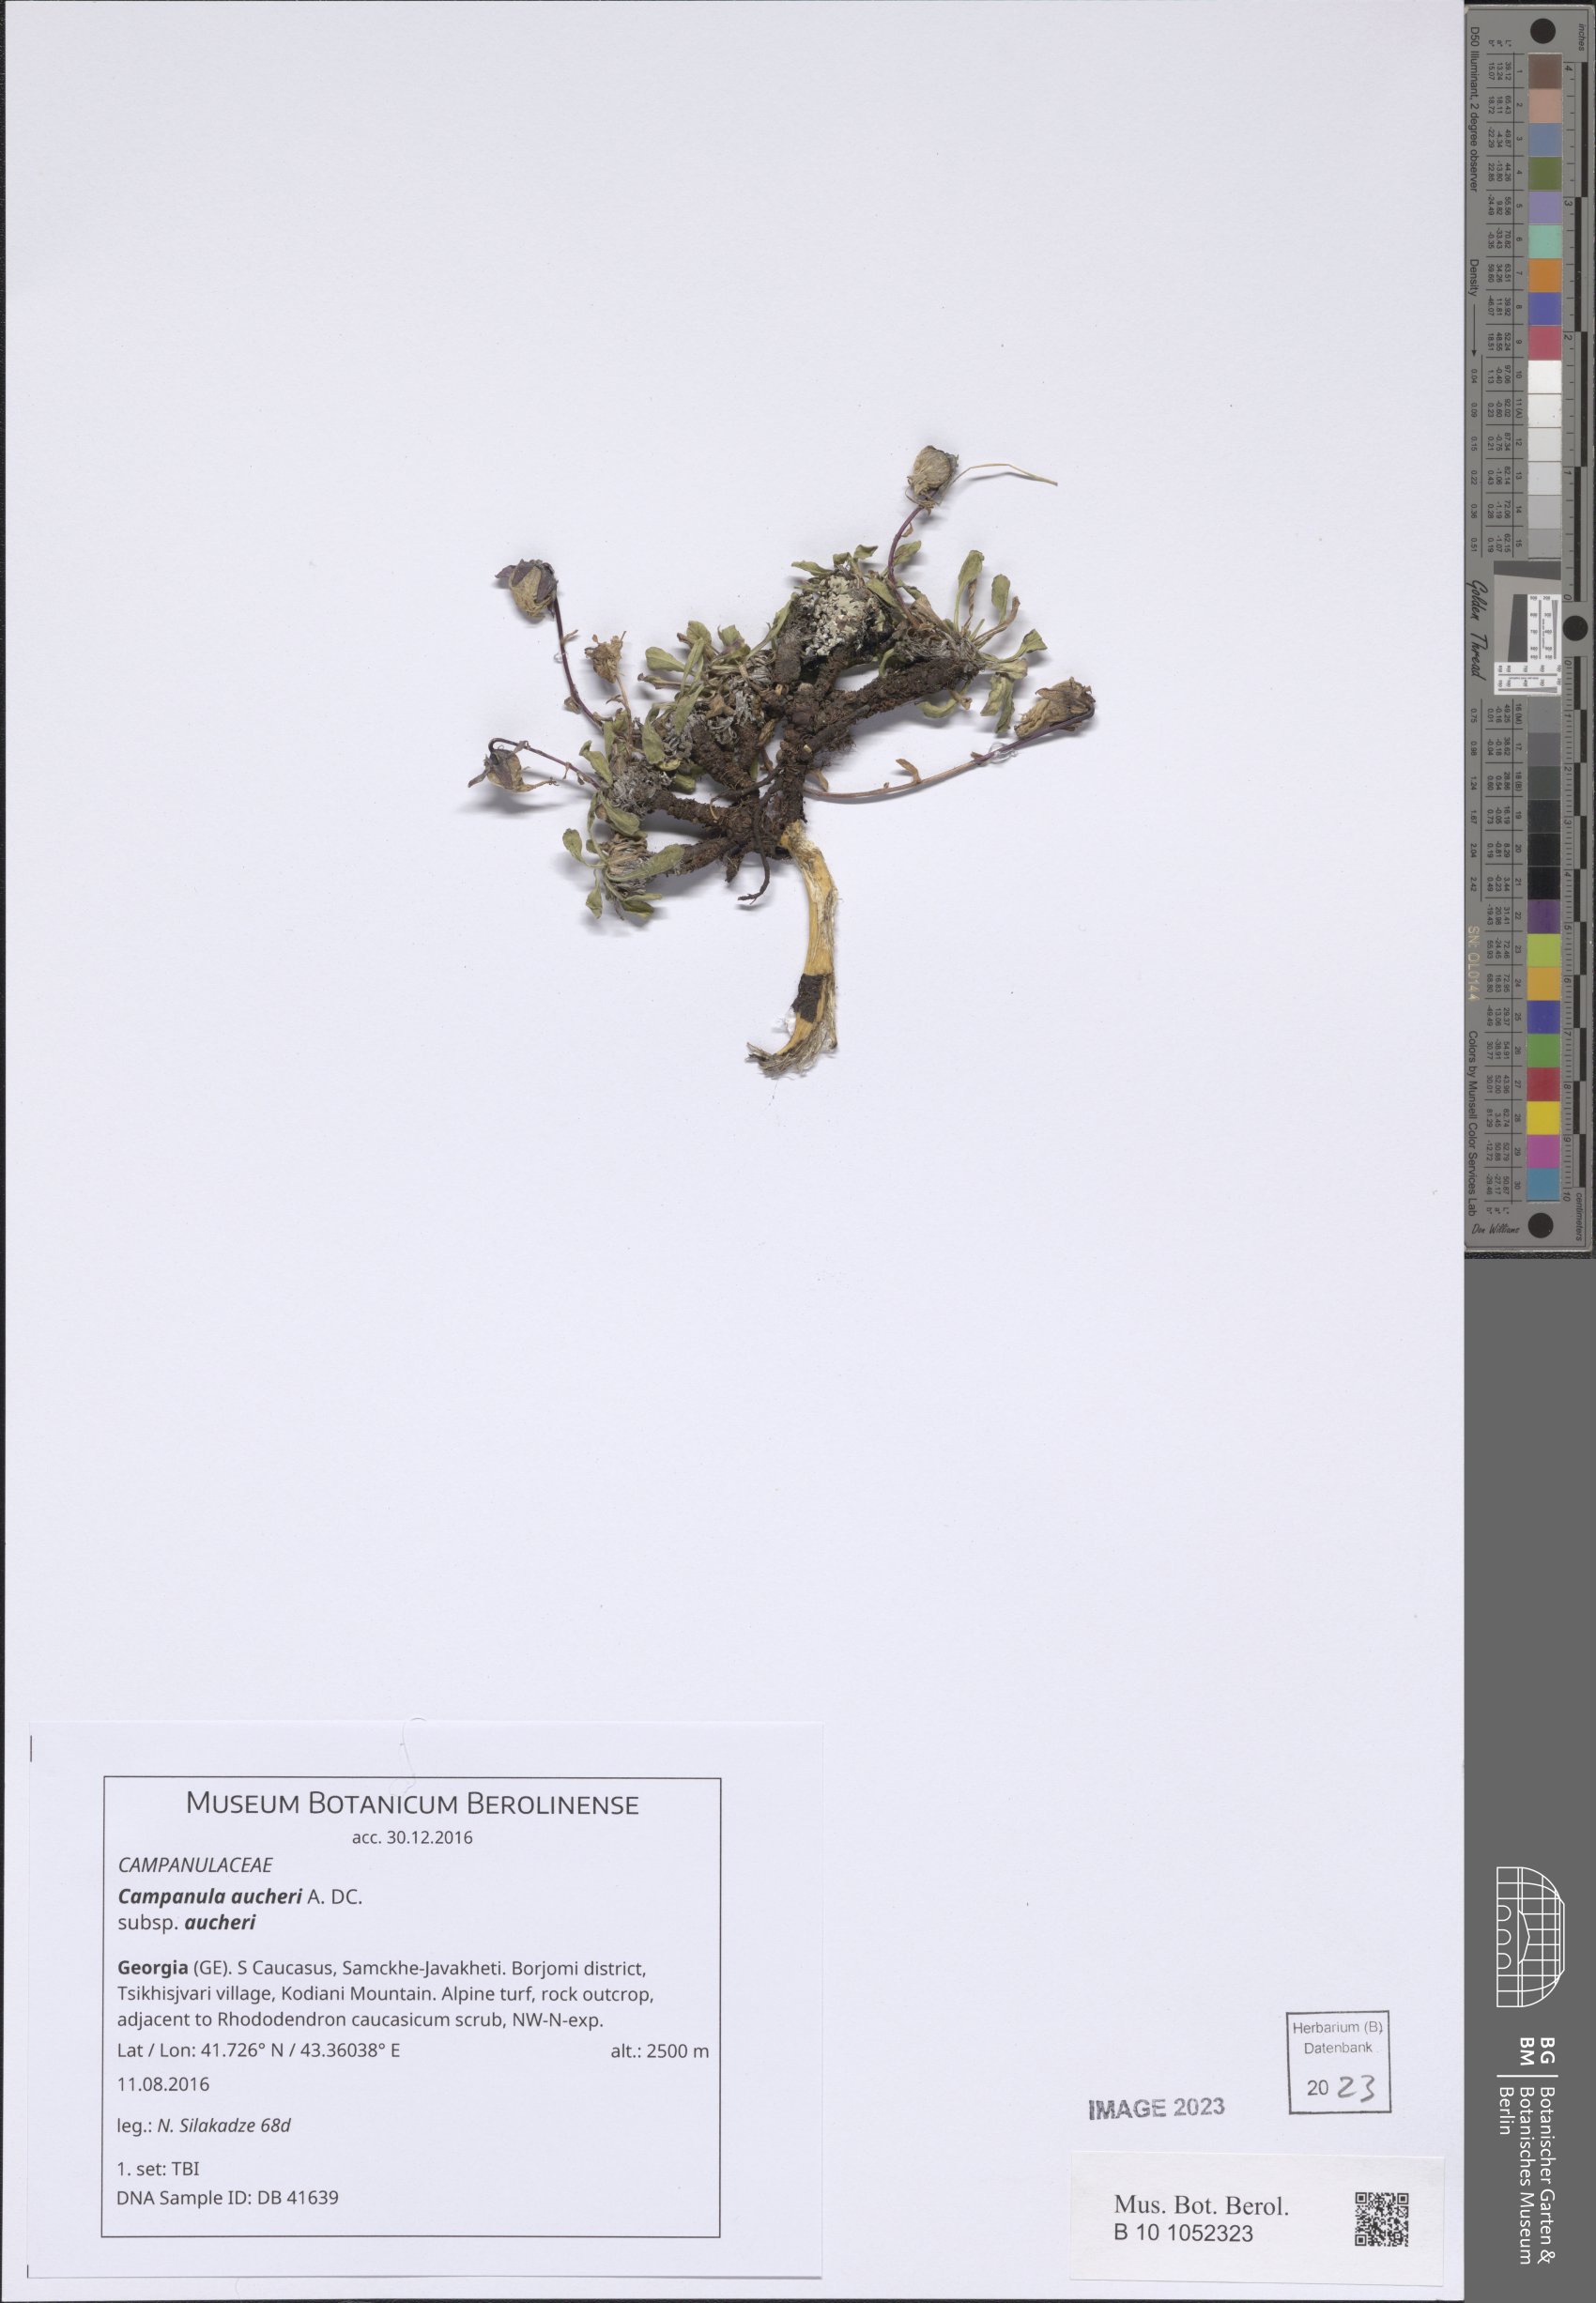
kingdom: Plantae
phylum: Tracheophyta
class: Magnoliopsida
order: Asterales
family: Campanulaceae
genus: Campanula
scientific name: Campanula saxifraga
